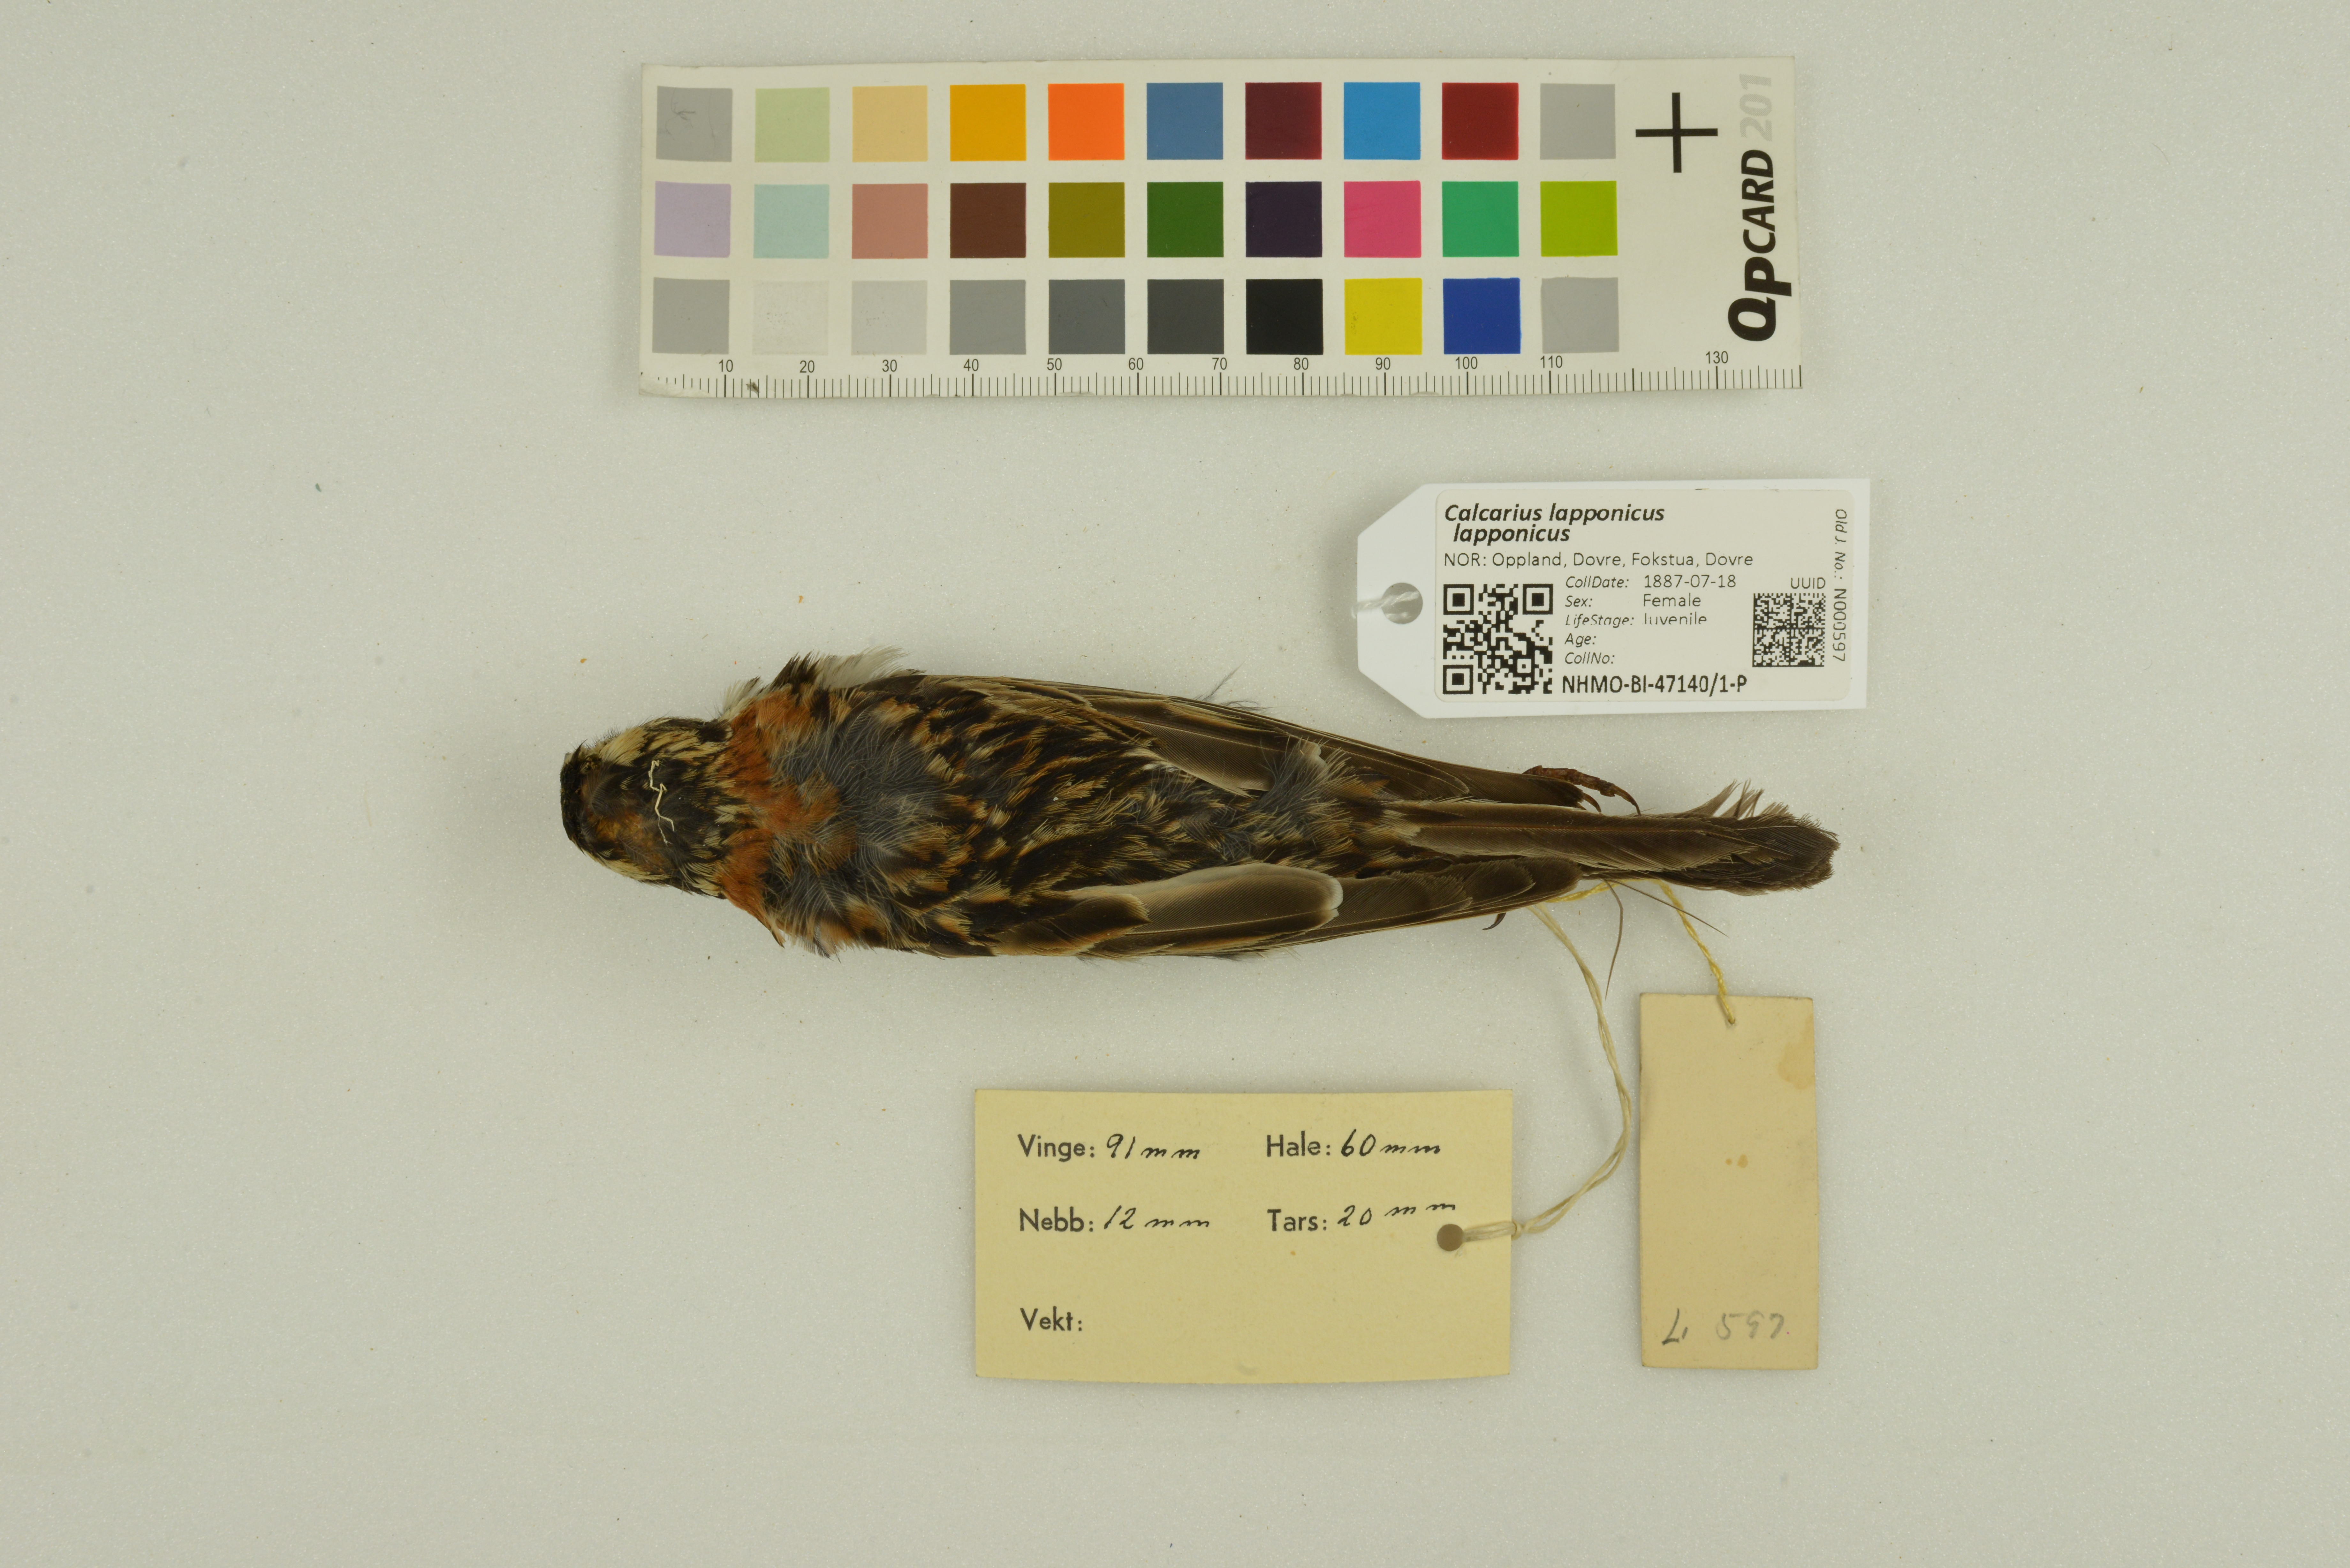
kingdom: Animalia
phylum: Chordata
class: Aves
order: Passeriformes
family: Calcariidae
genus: Calcarius
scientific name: Calcarius lapponicus
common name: Lapland longspur
